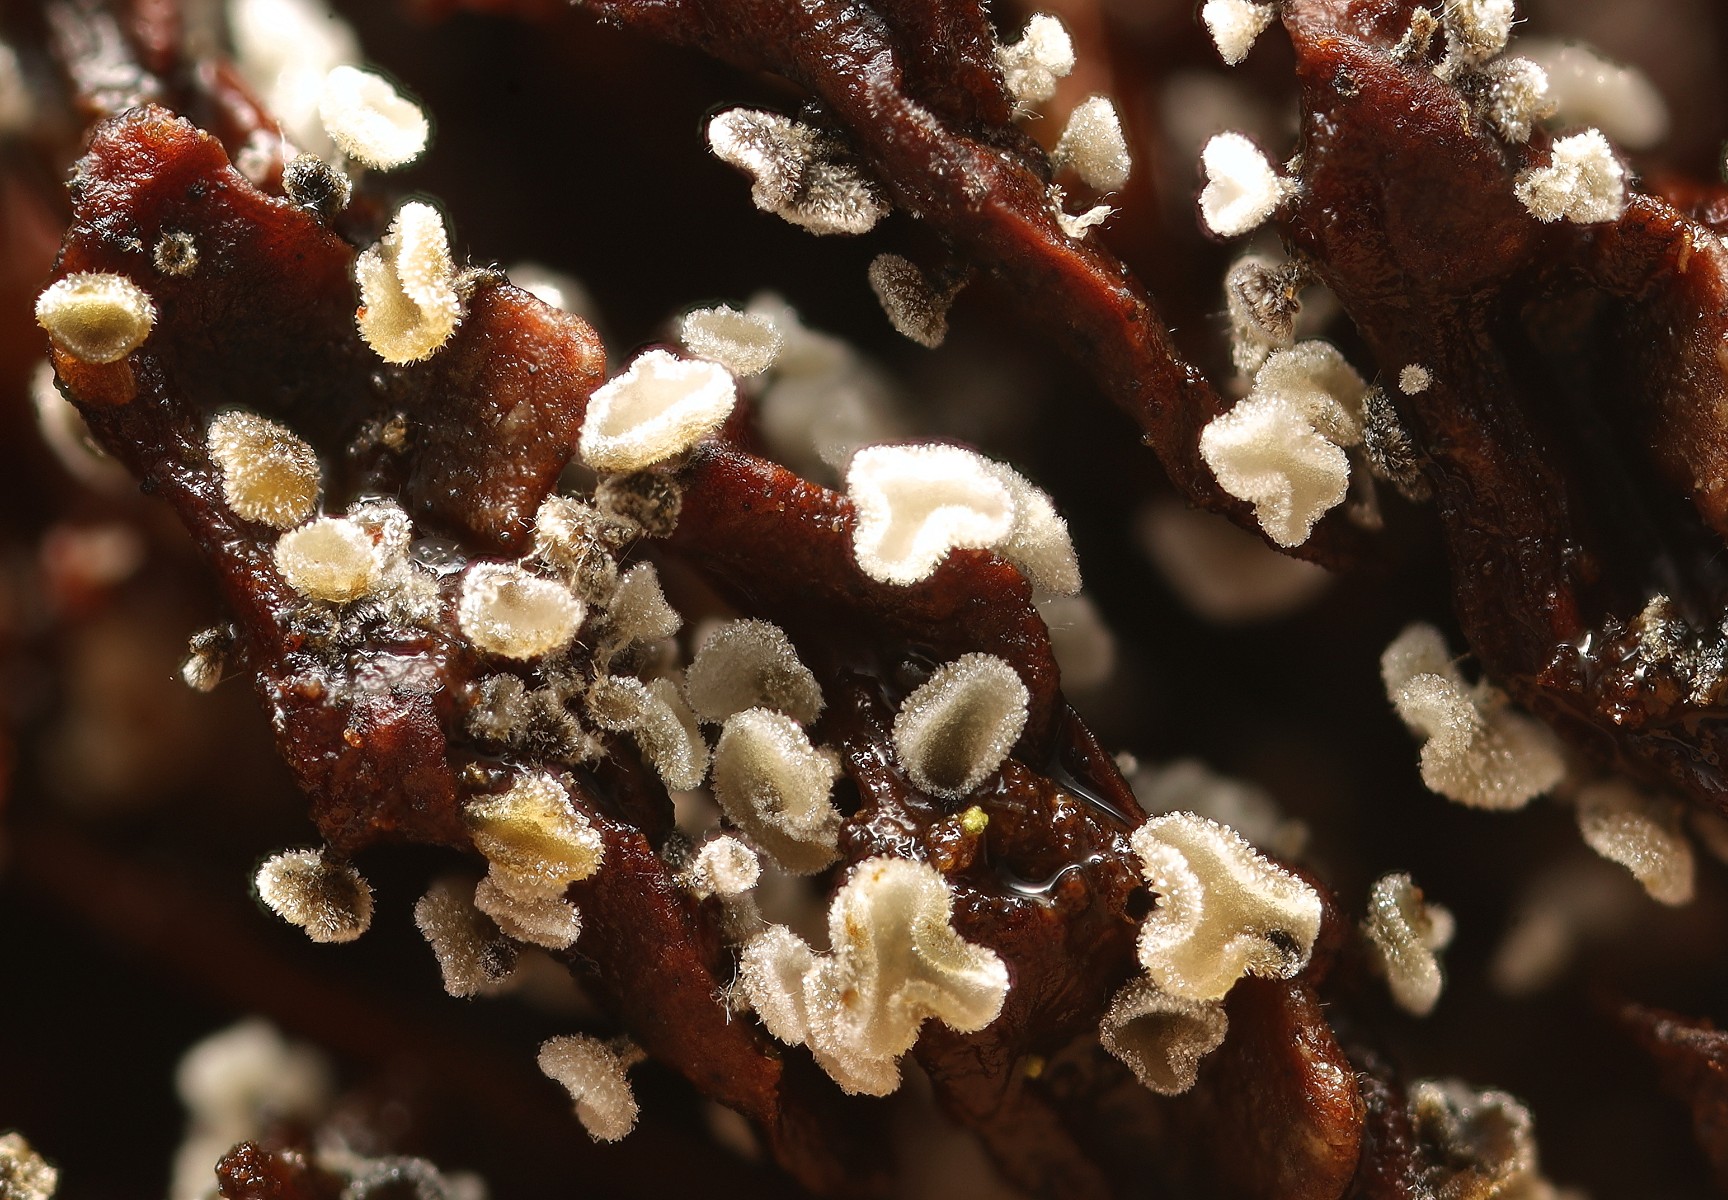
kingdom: Fungi
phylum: Ascomycota
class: Leotiomycetes
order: Helotiales
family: Hyaloscyphaceae
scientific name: Hyaloscyphaceae
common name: frynseskivefamilien
